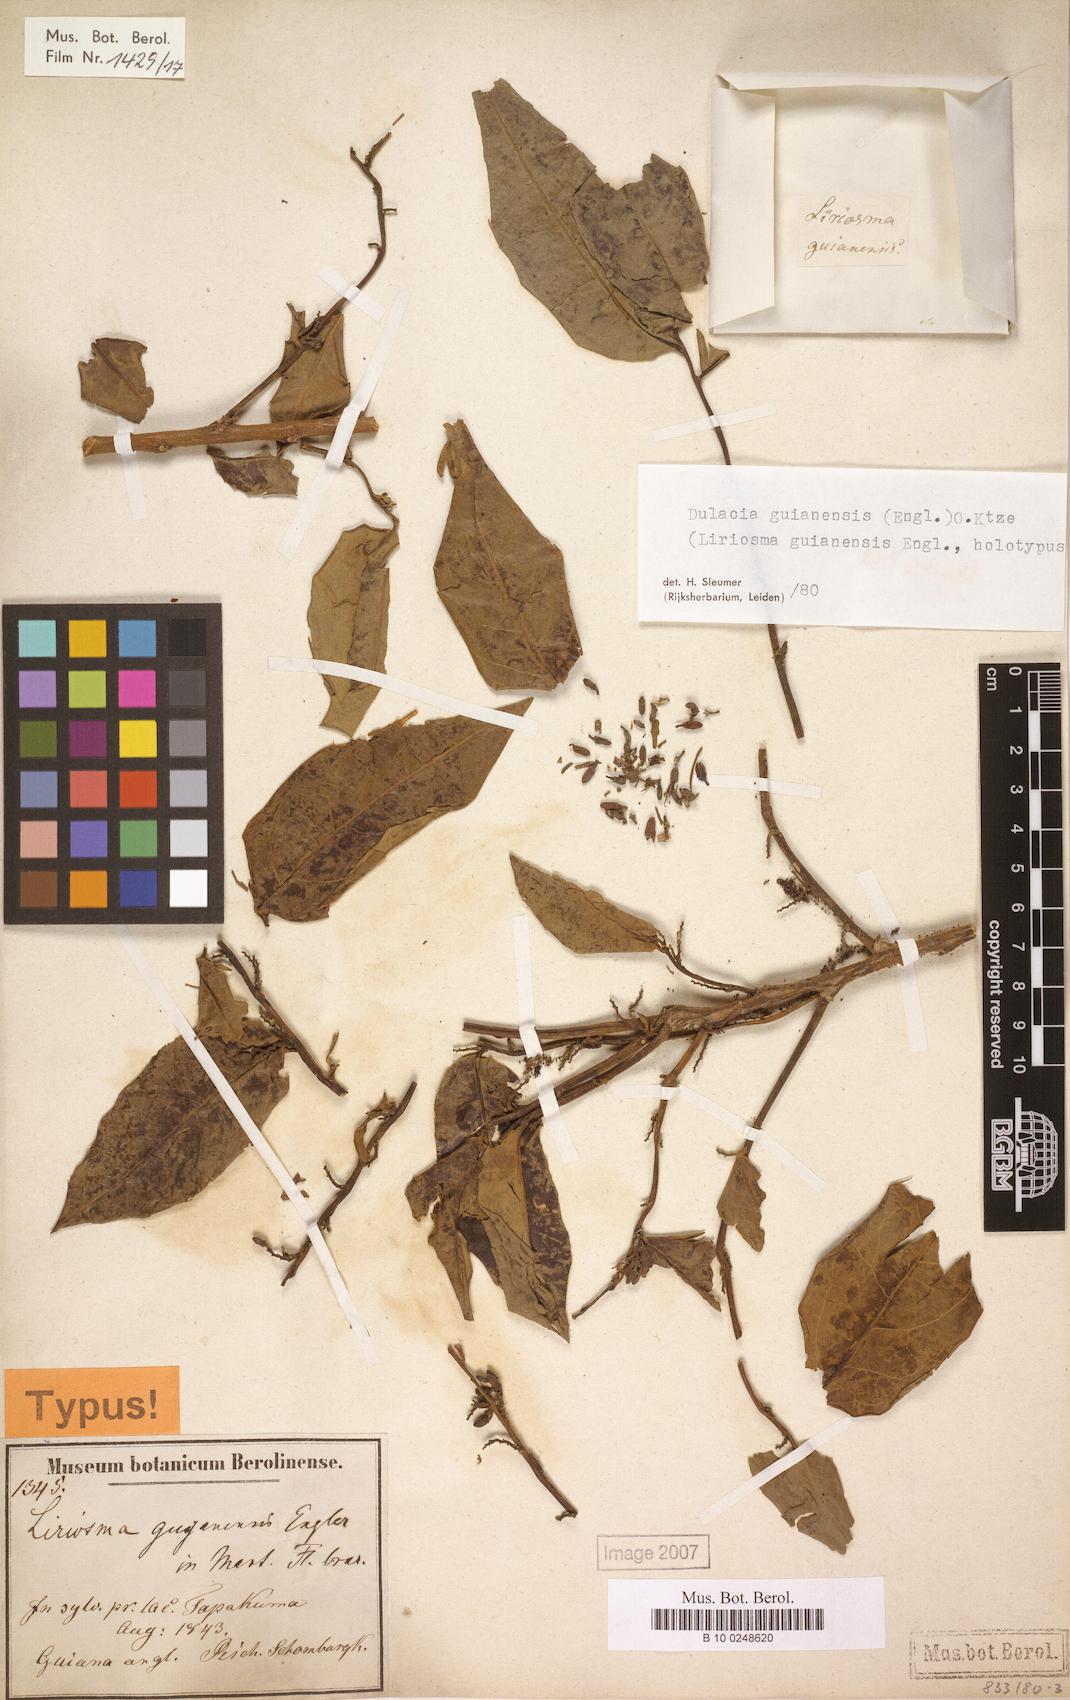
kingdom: Plantae
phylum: Tracheophyta
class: Magnoliopsida
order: Santalales
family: Olacaceae
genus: Dulacia
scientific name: Dulacia guianensis
